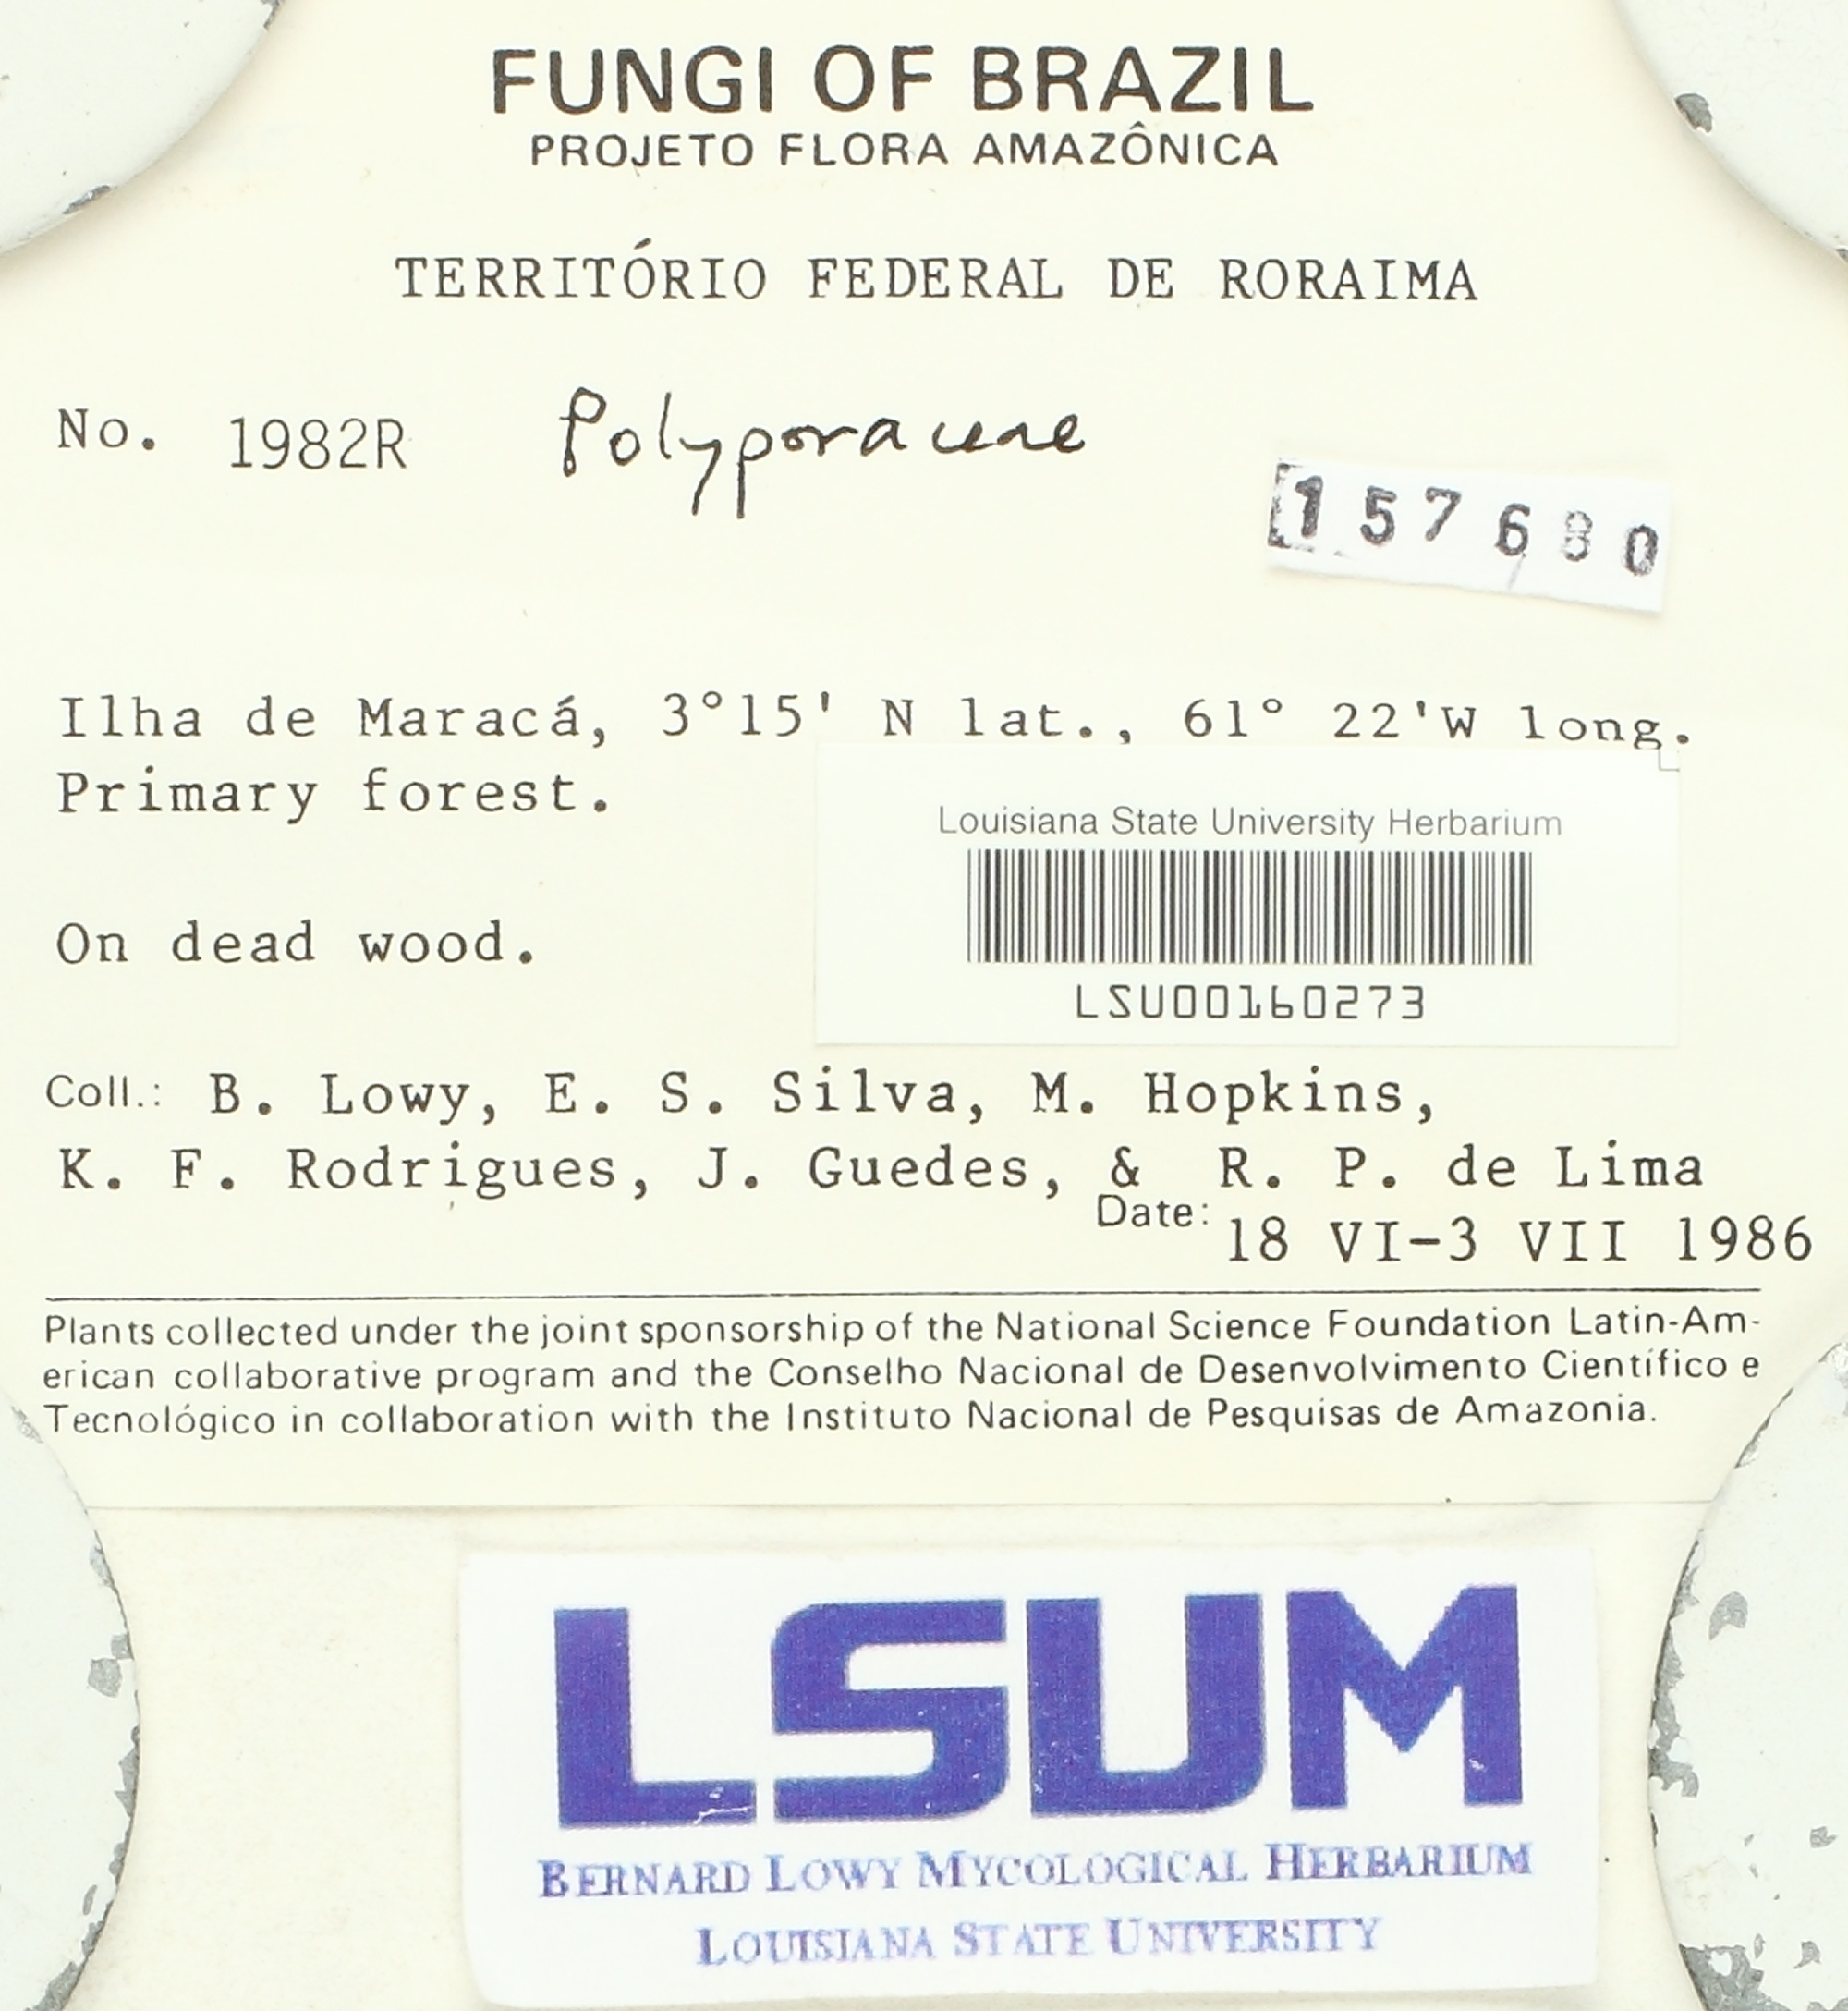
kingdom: Fungi
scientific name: Fungi
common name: Fungi
